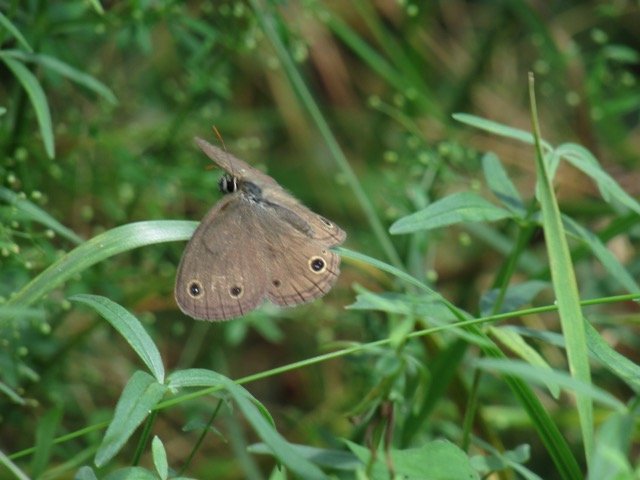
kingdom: Animalia
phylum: Arthropoda
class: Insecta
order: Lepidoptera
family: Nymphalidae
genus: Euptychia
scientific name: Euptychia cymela
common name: Little Wood Satyr
